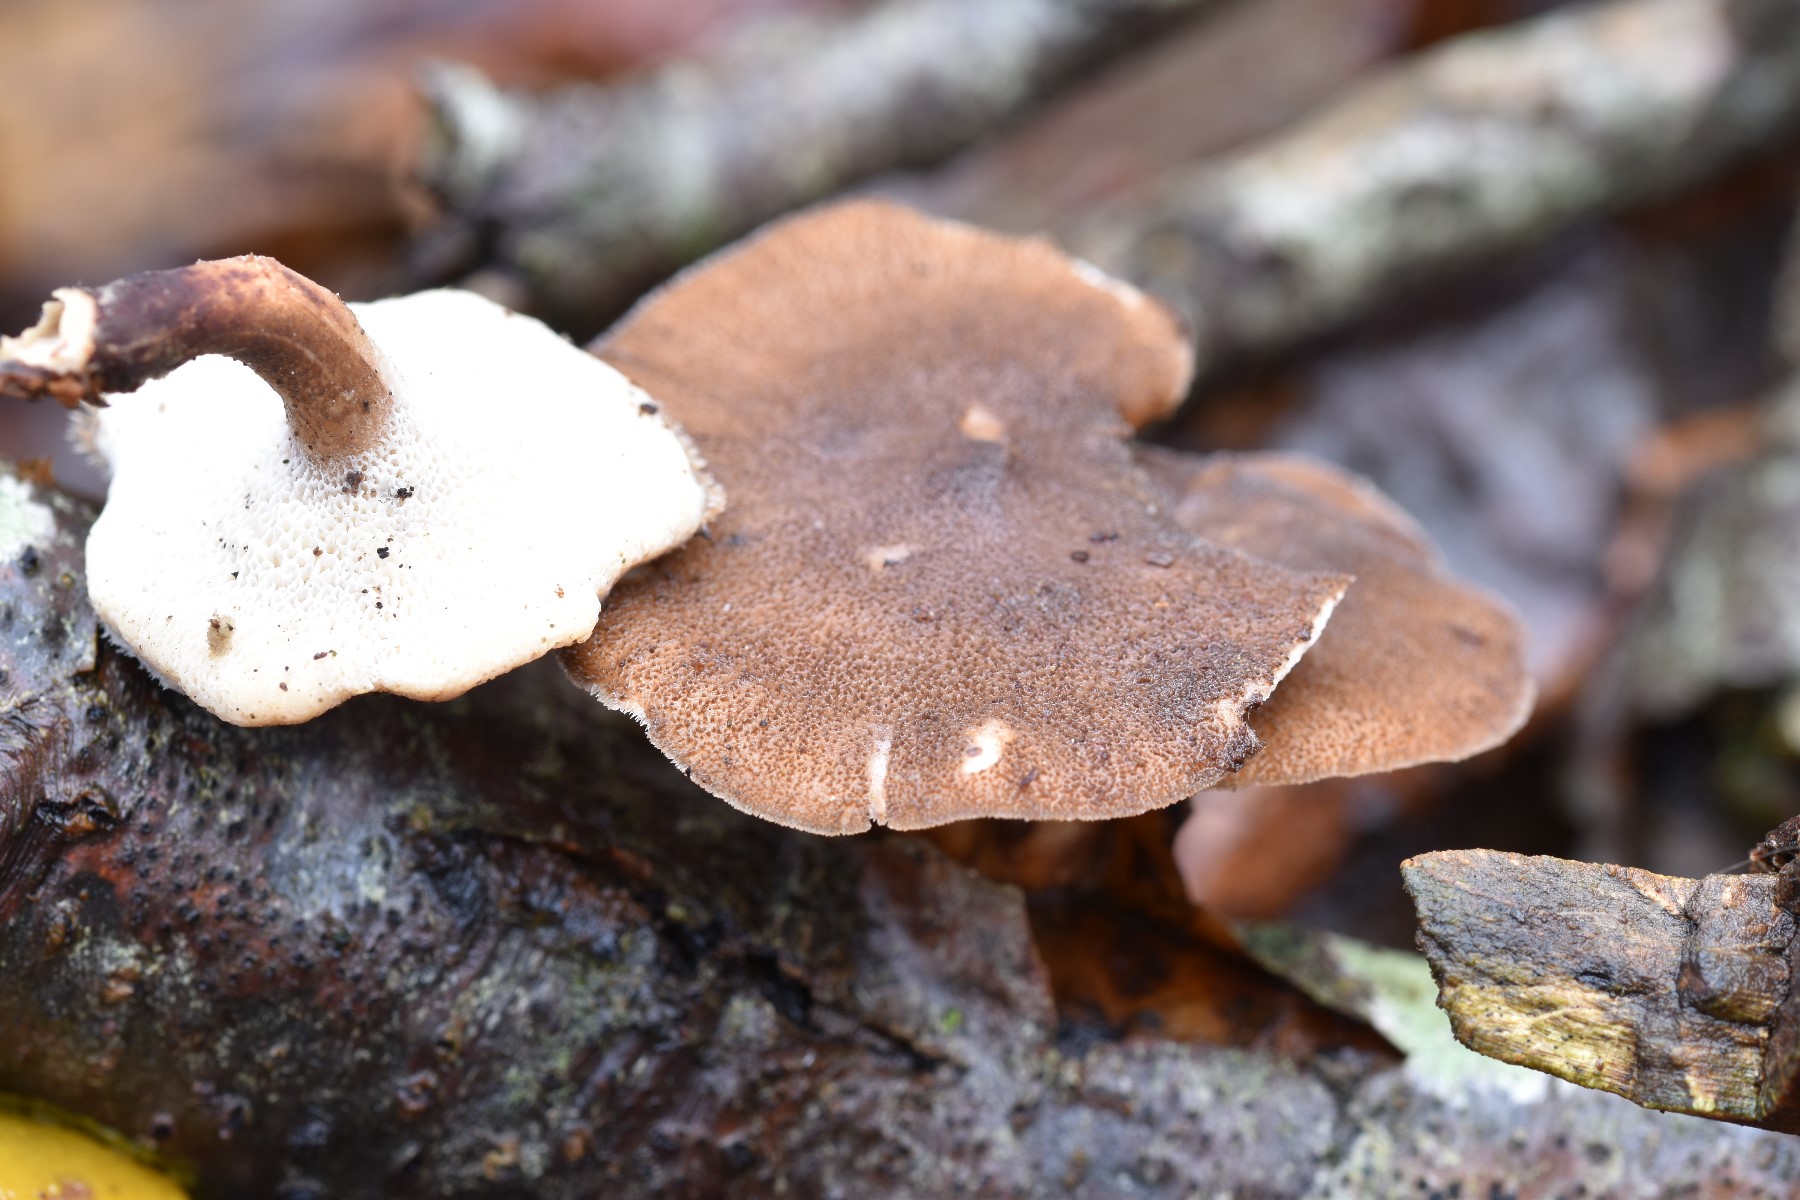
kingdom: Fungi
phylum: Basidiomycota
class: Agaricomycetes
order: Polyporales
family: Polyporaceae
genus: Lentinus
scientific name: Lentinus brumalis
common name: vinter-stilkporesvamp
